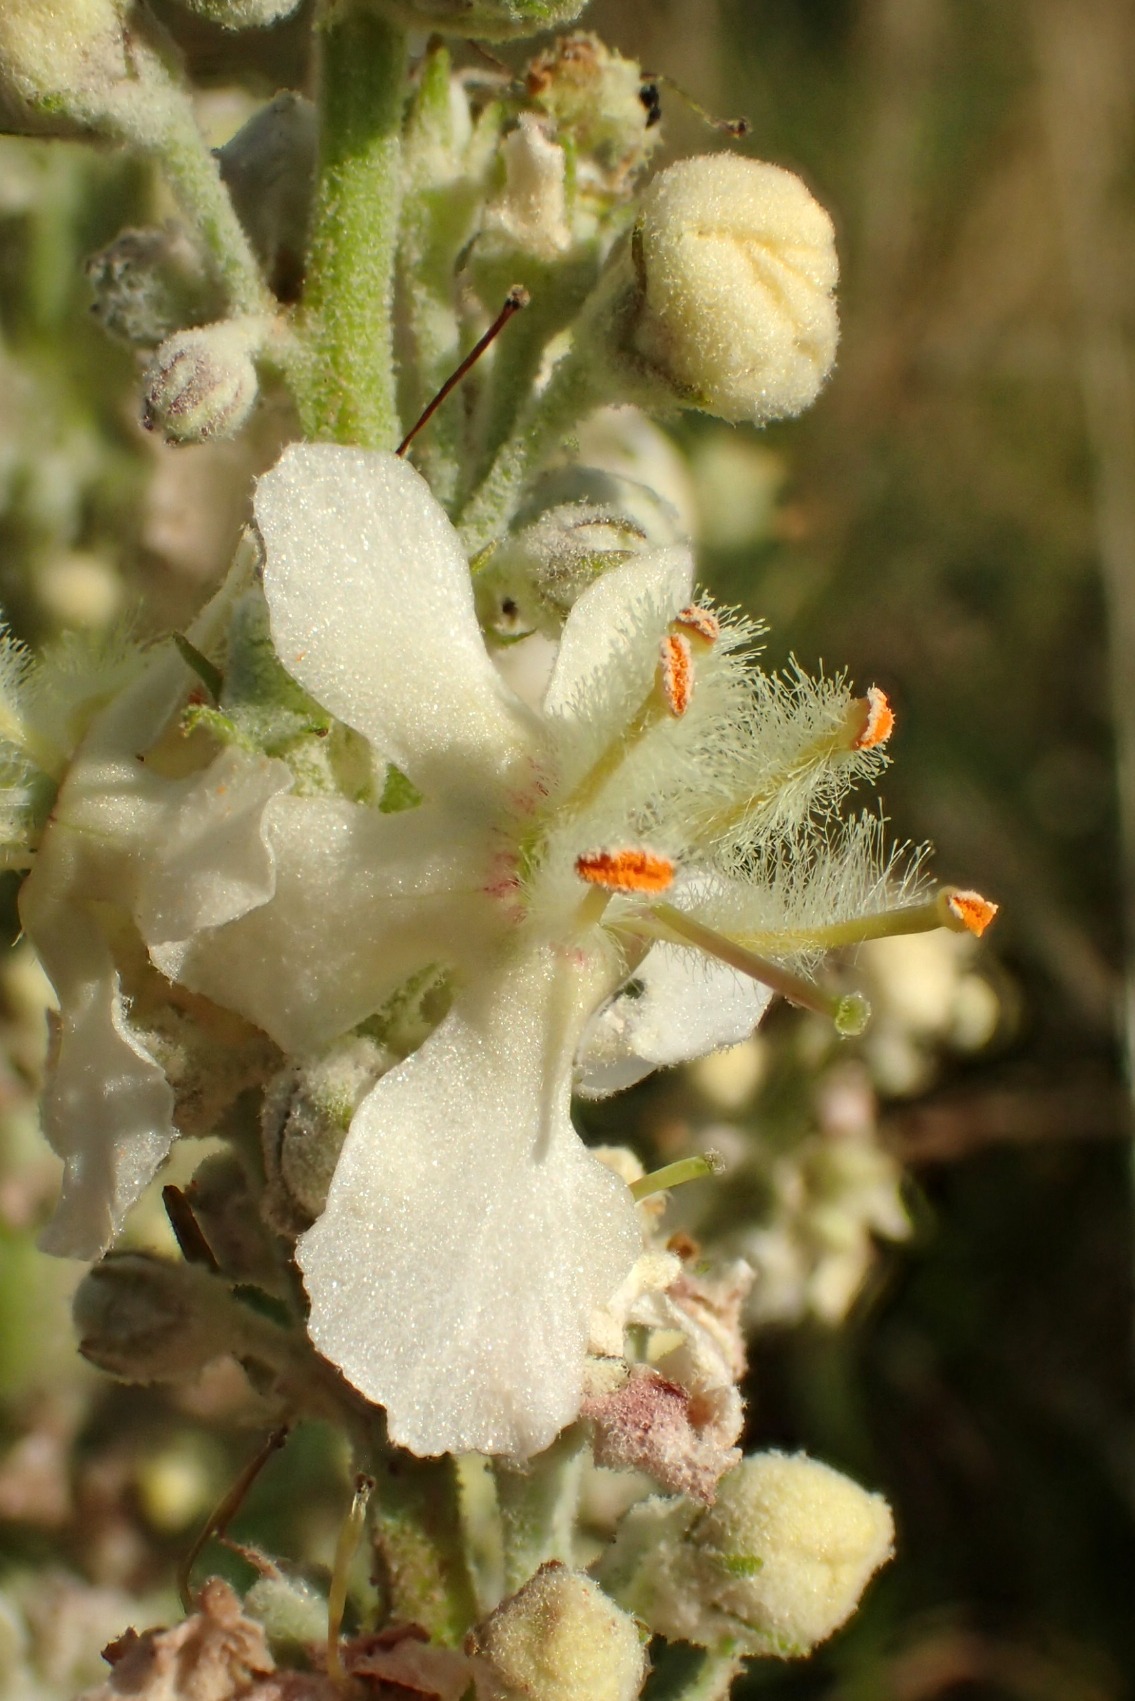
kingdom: Plantae
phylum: Tracheophyta
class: Magnoliopsida
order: Lamiales
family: Scrophulariaceae
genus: Verbascum
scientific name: Verbascum lychnitis
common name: Bleg kongelys
